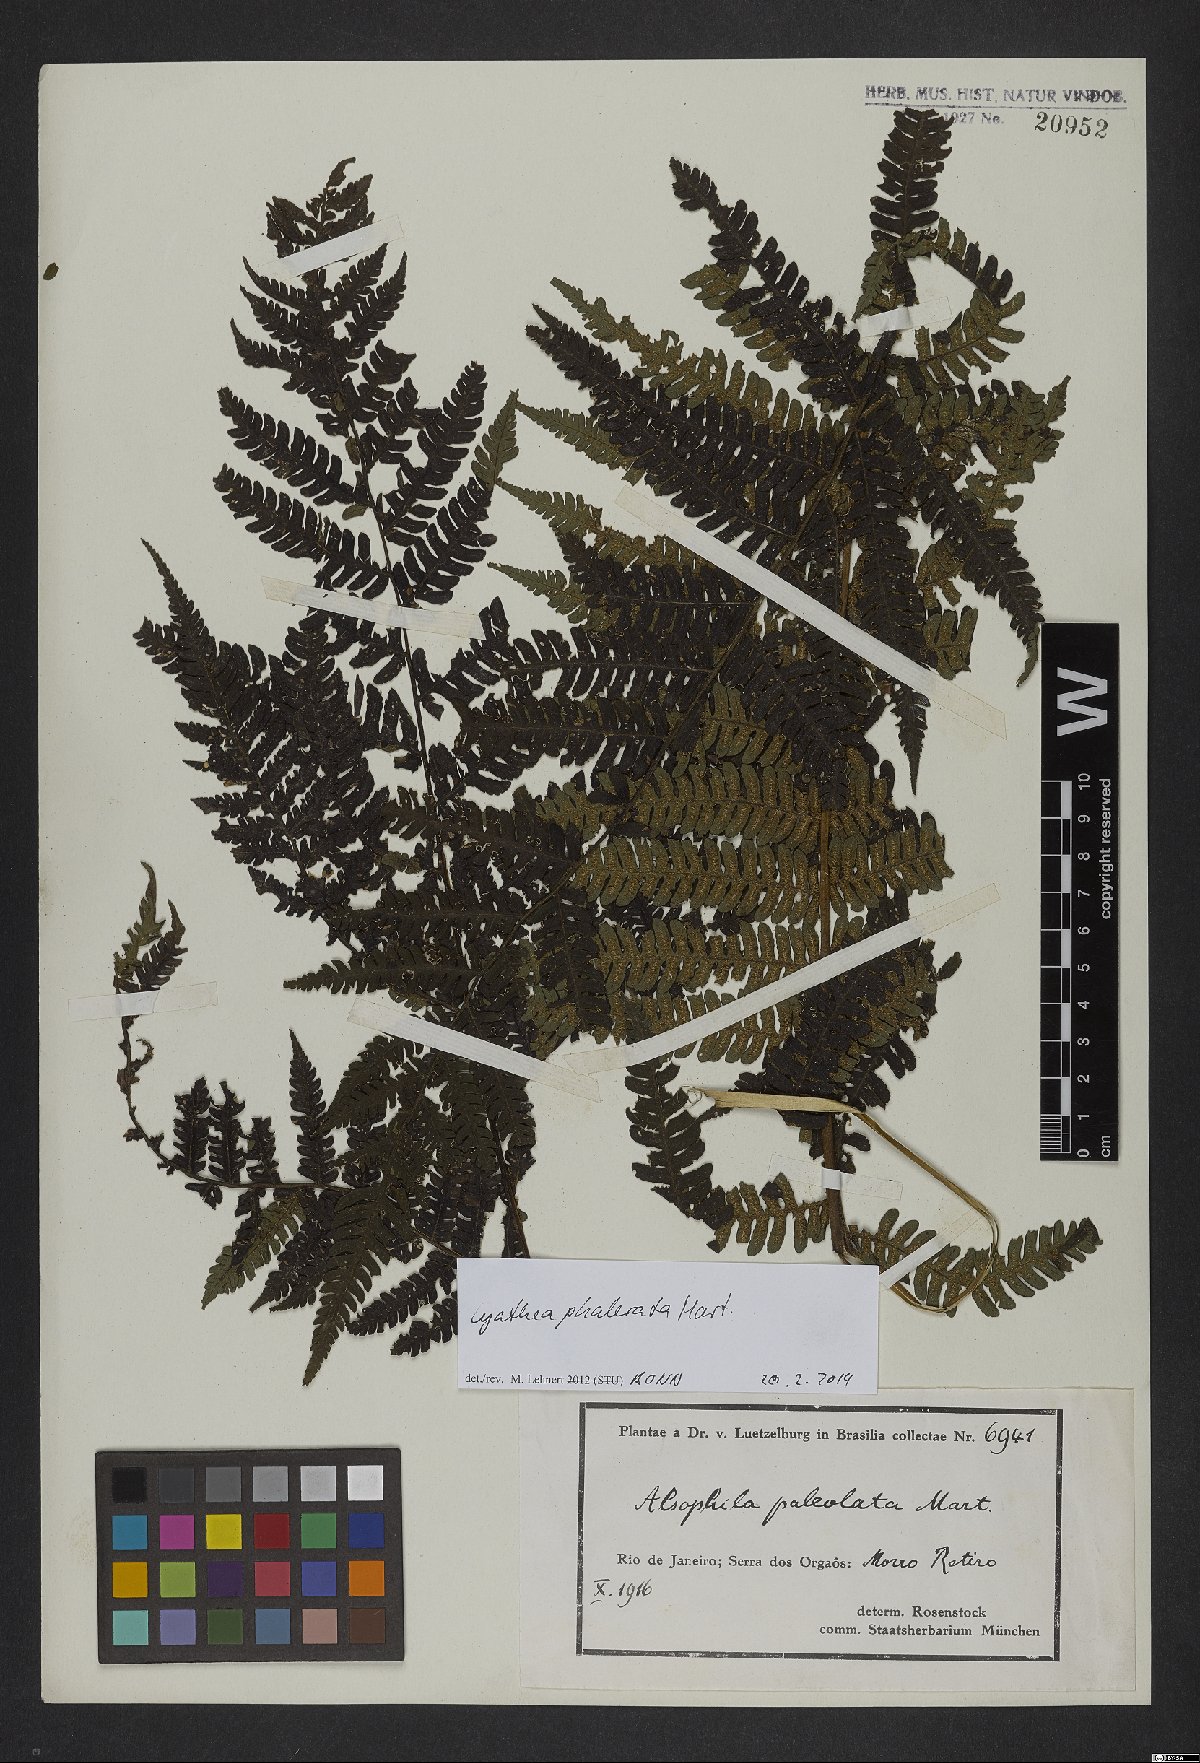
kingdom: Plantae
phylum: Tracheophyta
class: Polypodiopsida
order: Cyatheales
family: Cyatheaceae
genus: Cyathea
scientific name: Cyathea phalerata
